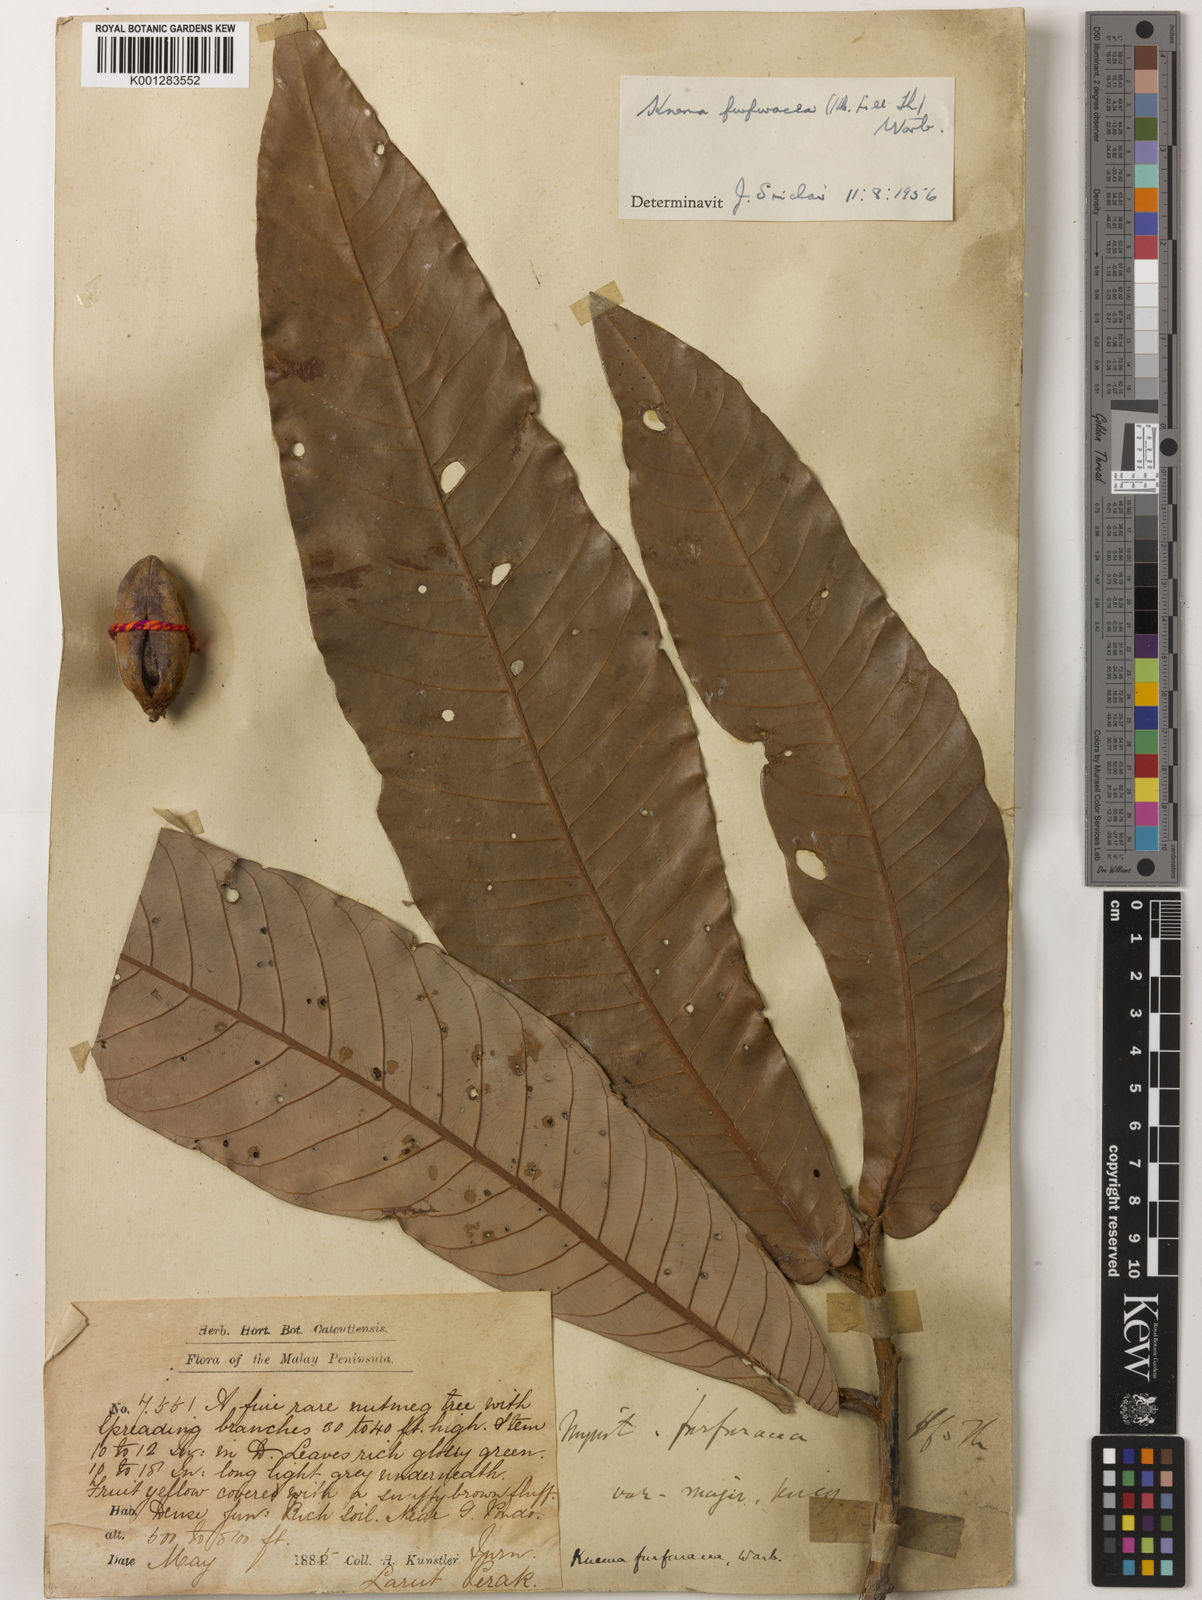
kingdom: Plantae
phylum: Tracheophyta
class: Magnoliopsida
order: Magnoliales
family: Myristicaceae
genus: Knema
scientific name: Knema furfuracea
